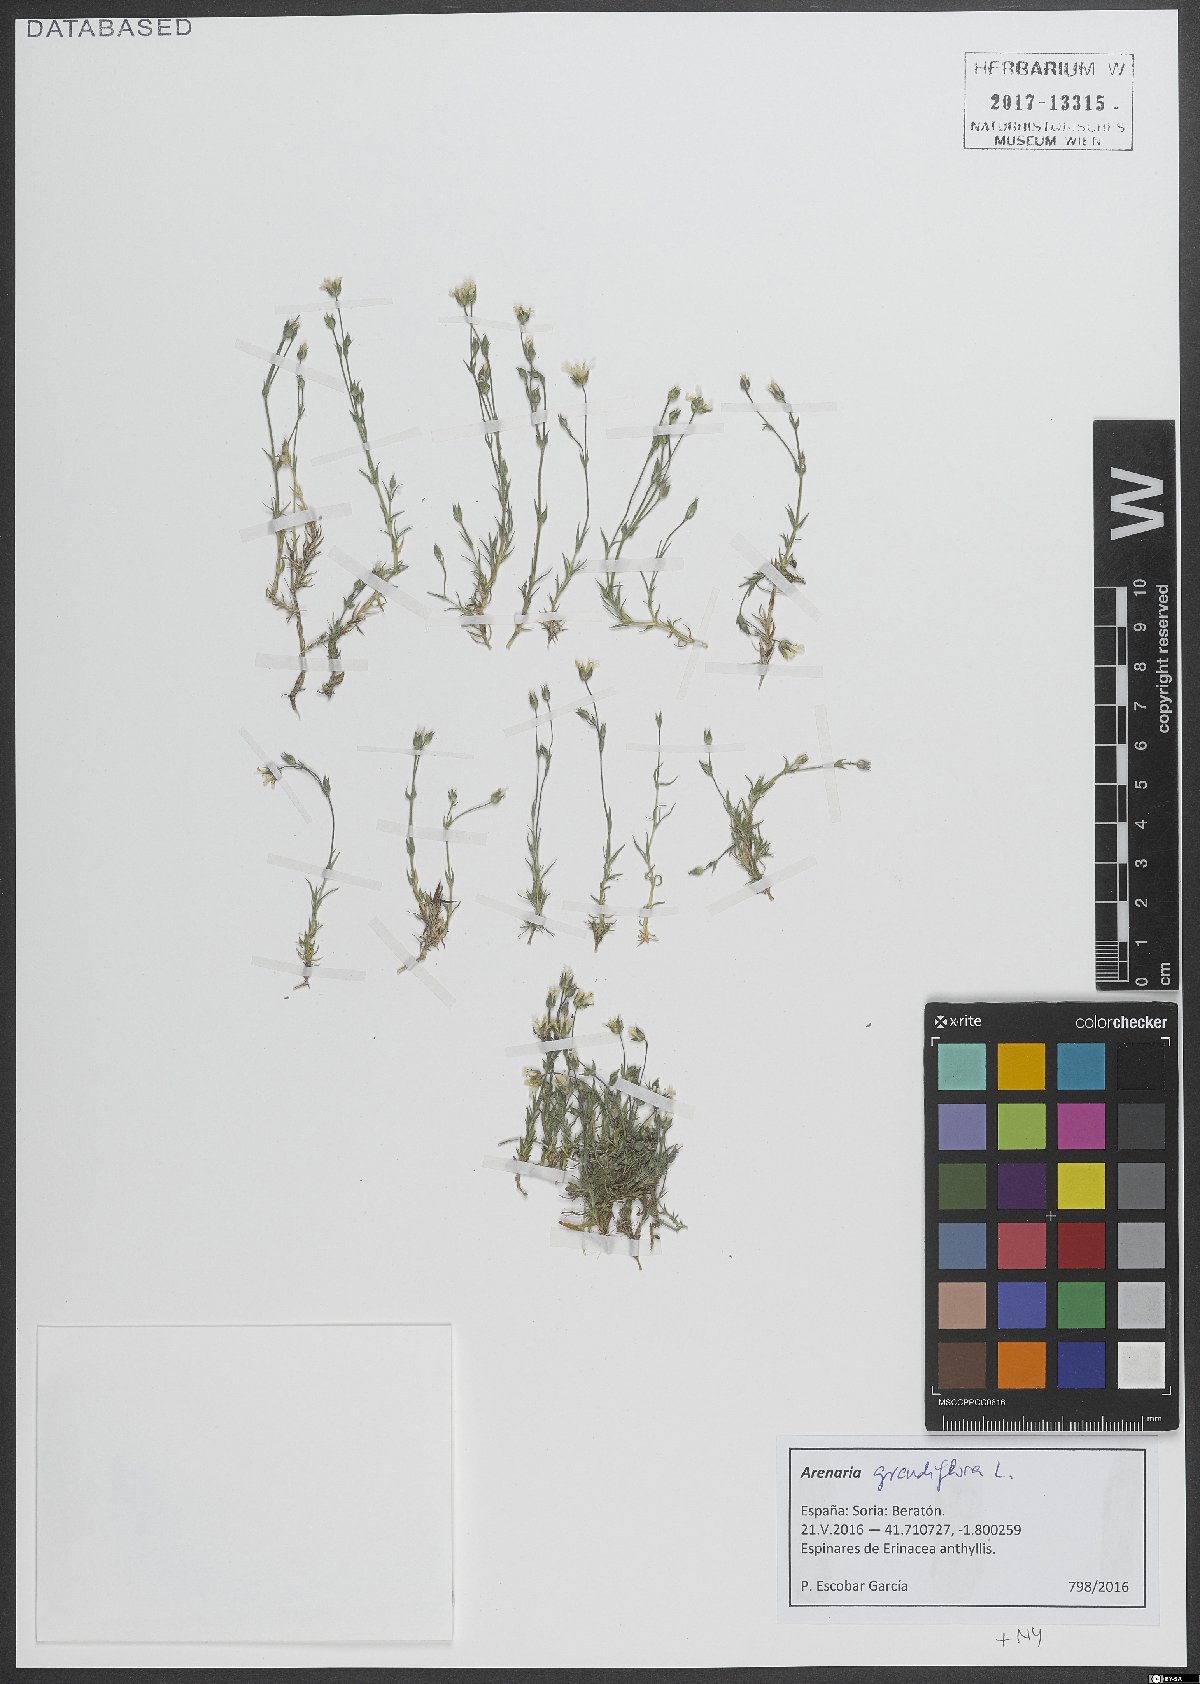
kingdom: Plantae
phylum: Tracheophyta
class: Magnoliopsida
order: Caryophyllales
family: Caryophyllaceae
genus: Arenaria
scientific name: Arenaria grandiflora
